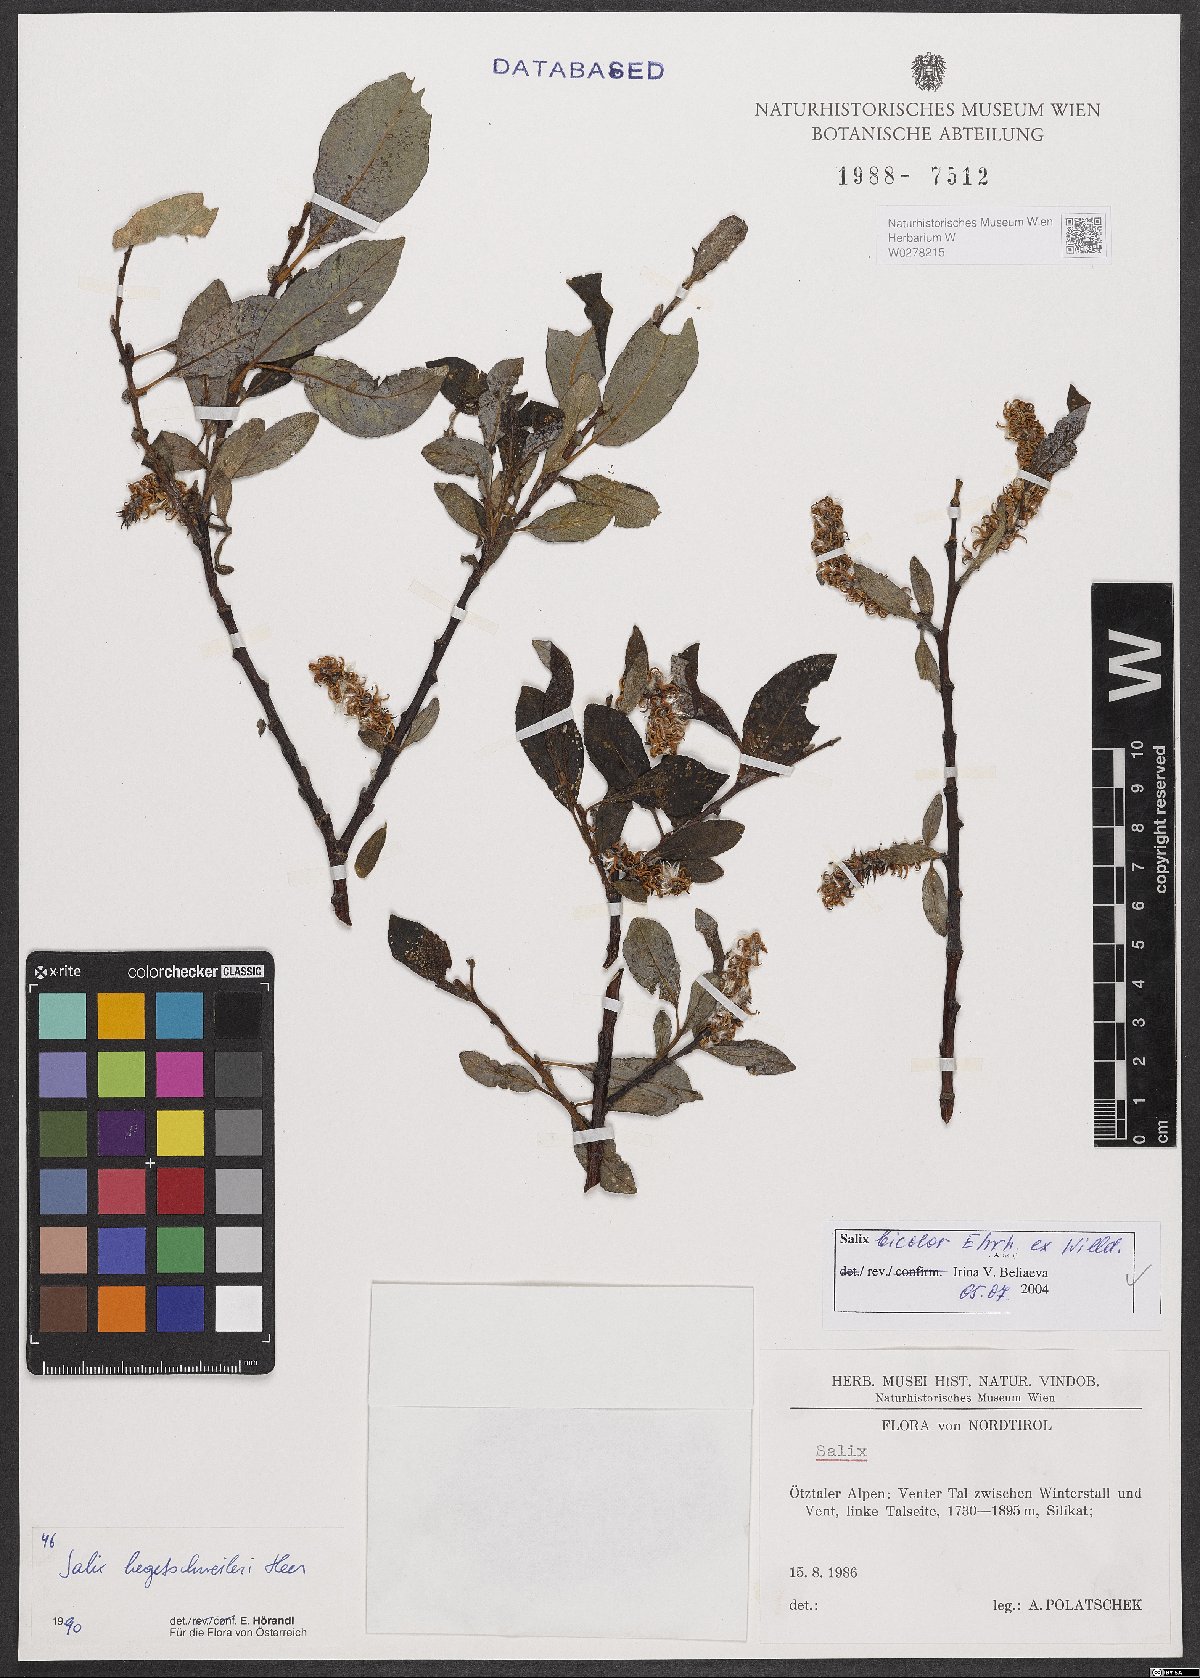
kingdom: Plantae
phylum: Tracheophyta
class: Magnoliopsida
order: Malpighiales
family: Salicaceae
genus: Salix
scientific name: Salix bicolor
